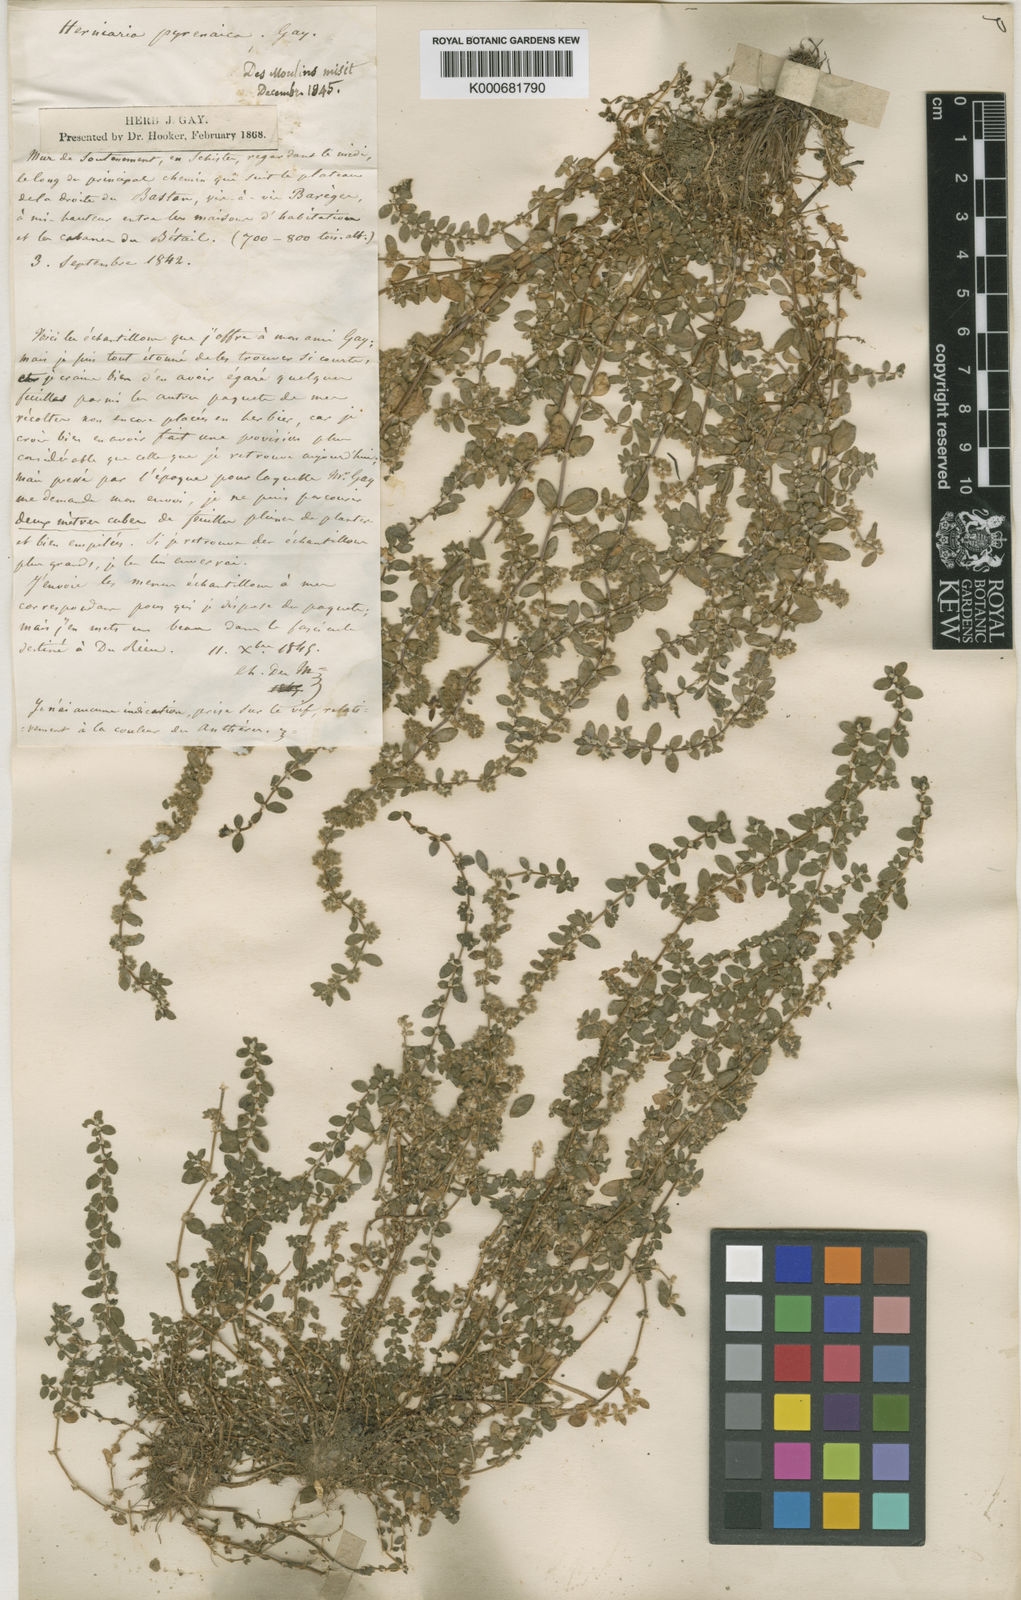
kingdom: Plantae
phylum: Tracheophyta
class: Magnoliopsida
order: Caryophyllales
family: Caryophyllaceae
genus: Herniaria
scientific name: Herniaria latifolia
